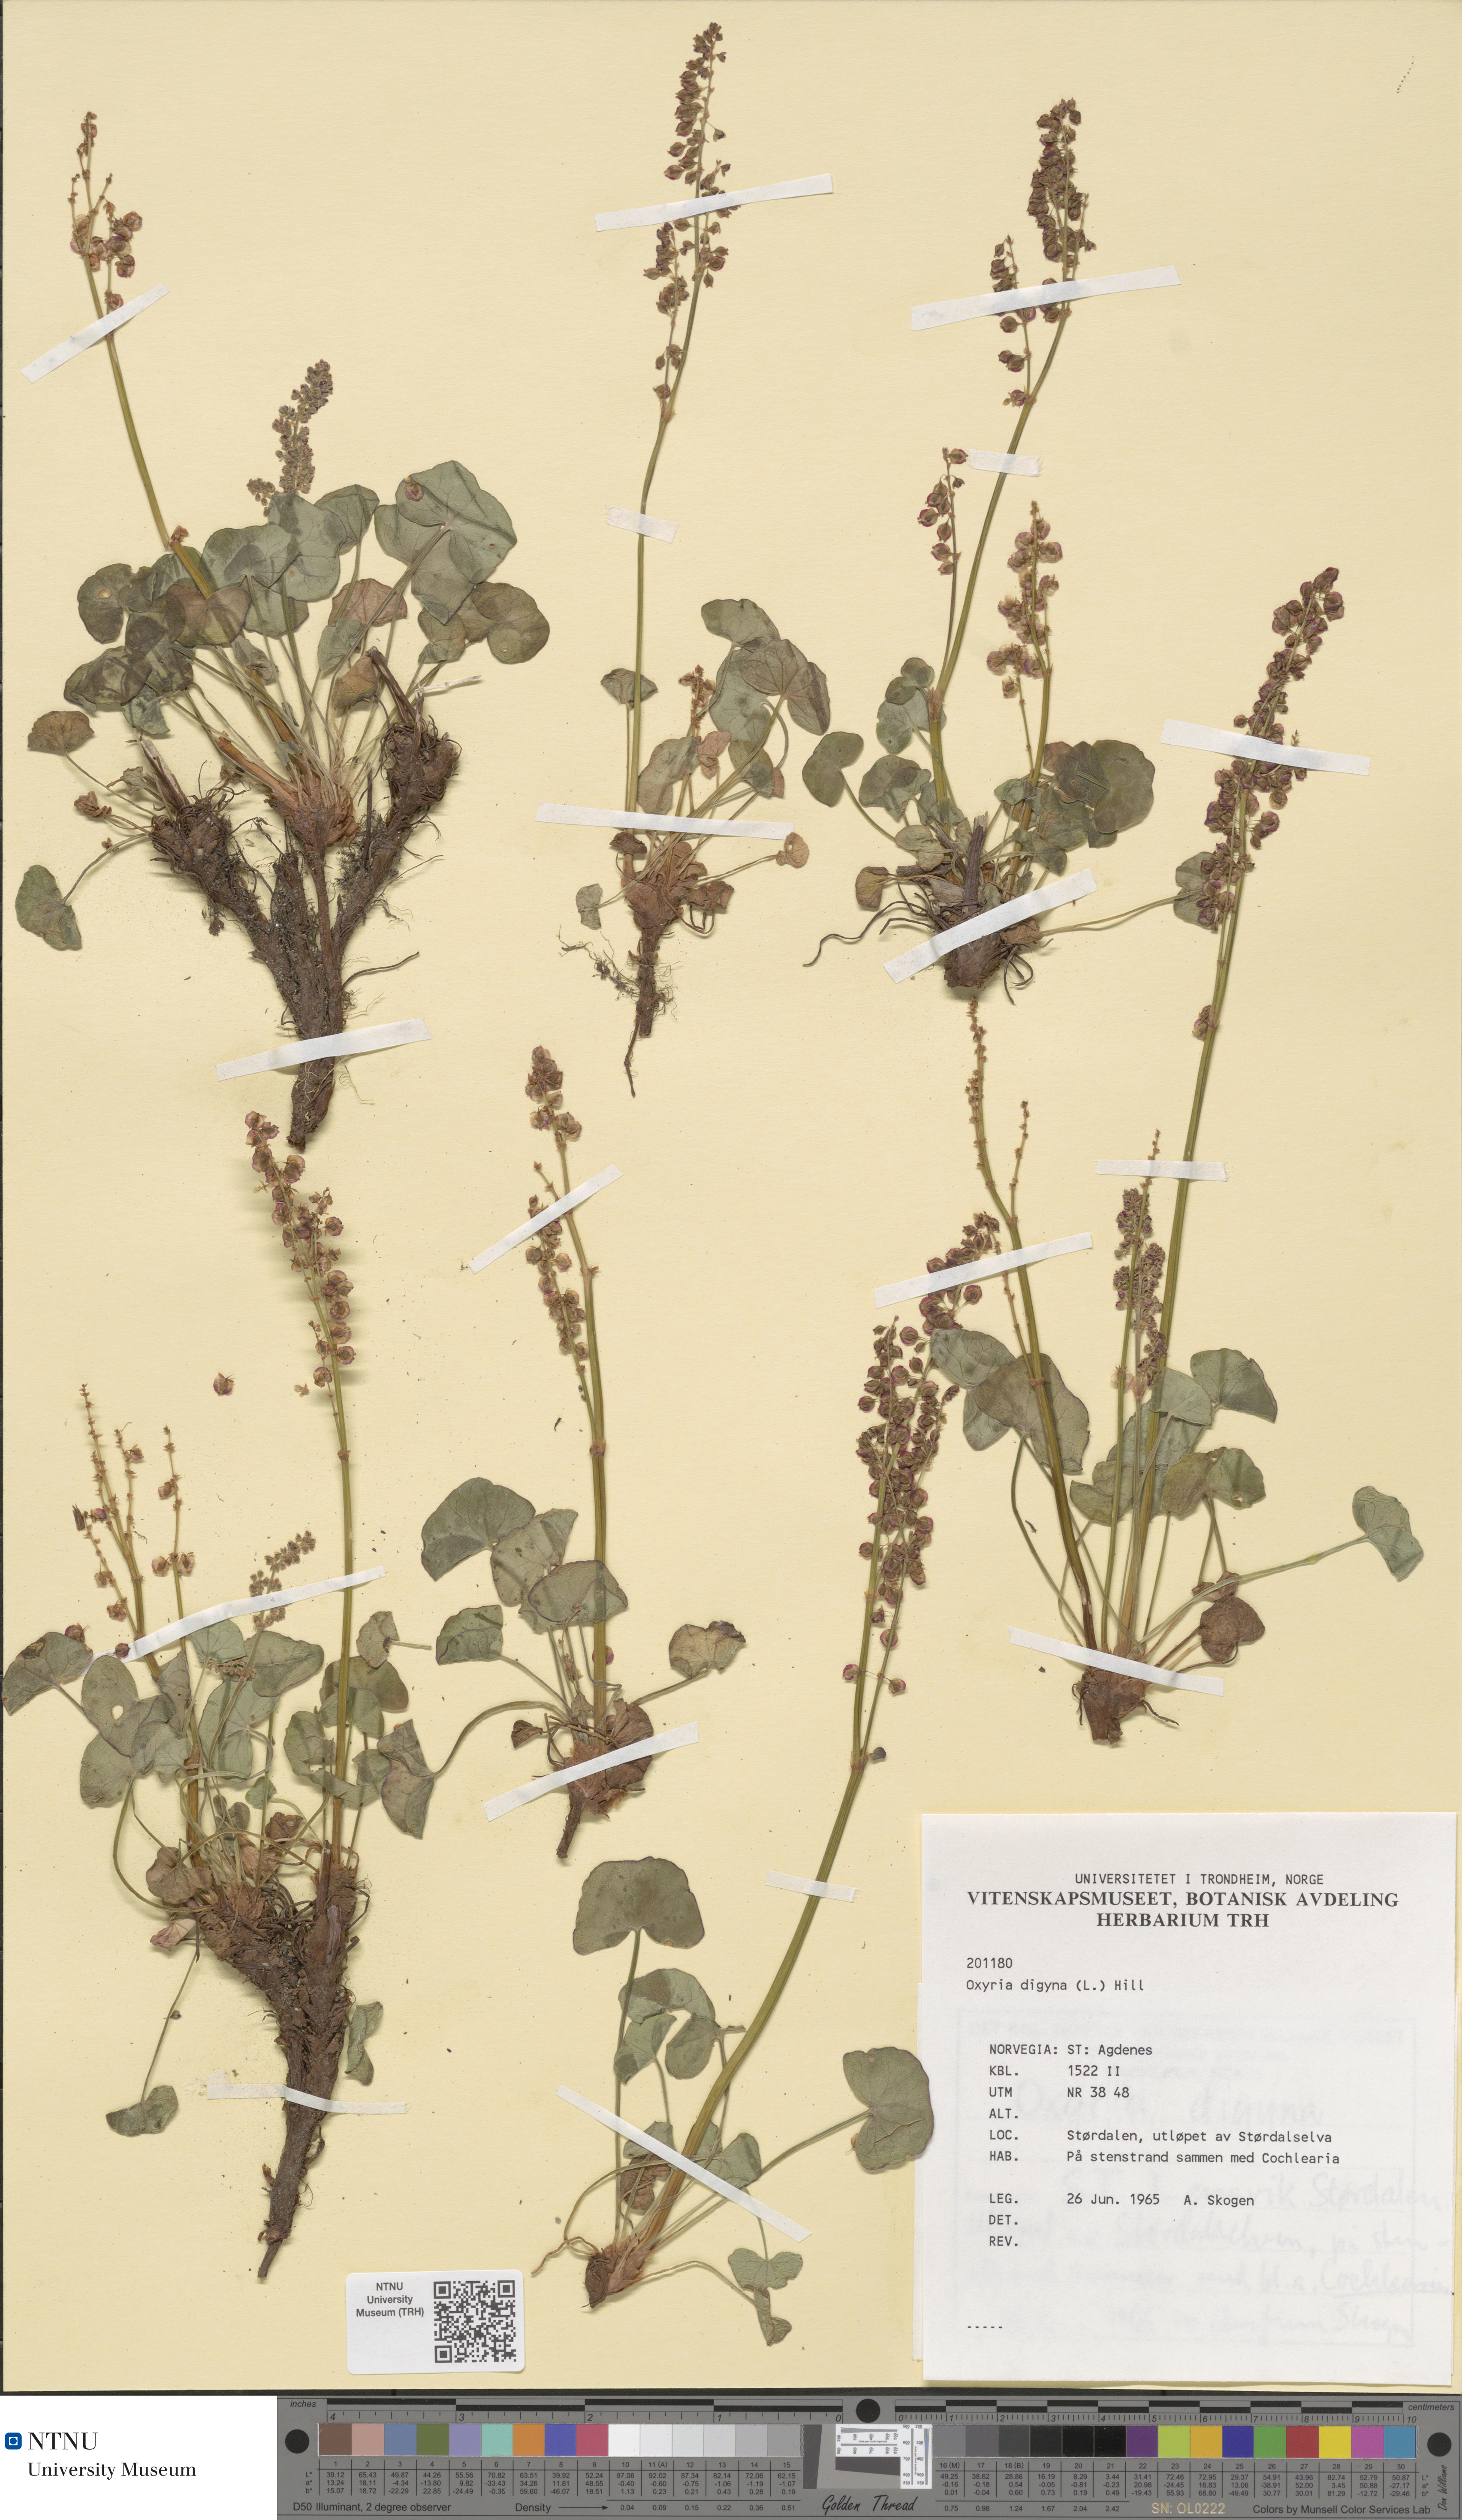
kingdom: Plantae
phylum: Tracheophyta
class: Magnoliopsida
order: Caryophyllales
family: Polygonaceae
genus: Oxyria
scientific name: Oxyria digyna
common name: Alpine mountain-sorrel
